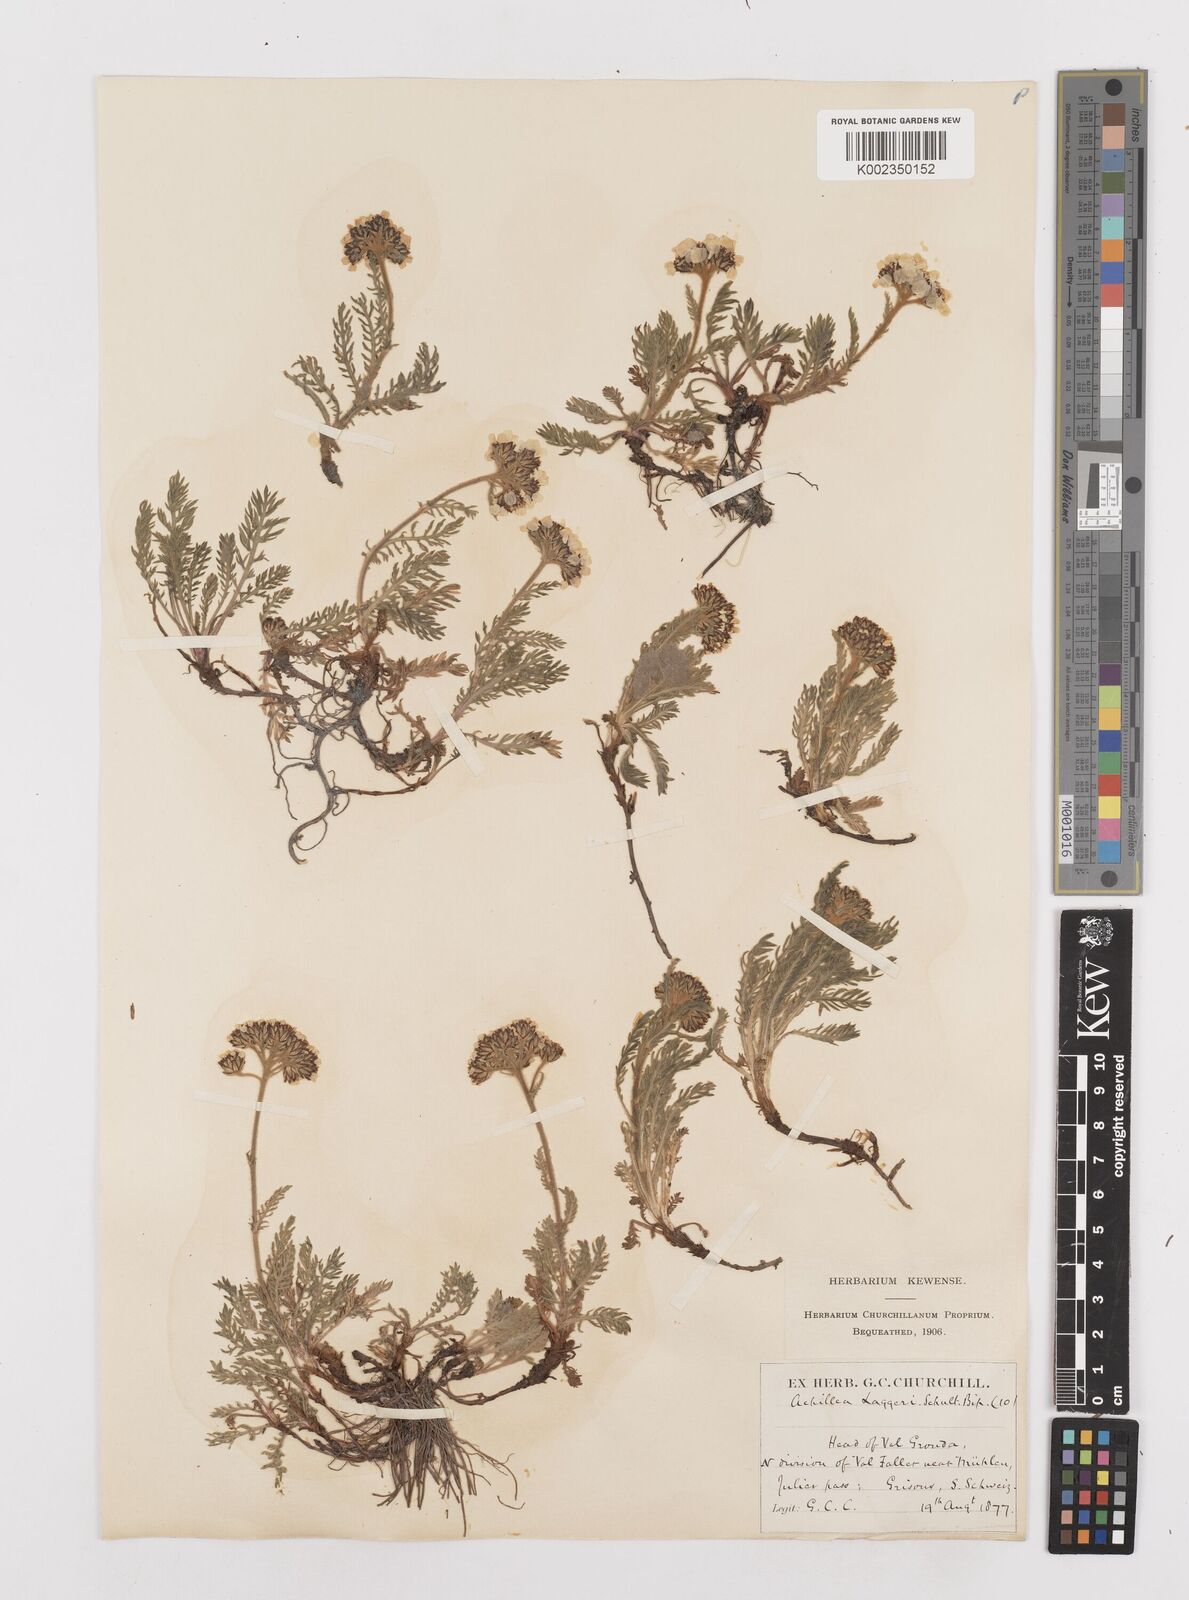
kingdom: Plantae
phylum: Tracheophyta
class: Magnoliopsida
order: Asterales
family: Asteraceae
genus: Achillea
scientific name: Achillea atrata
